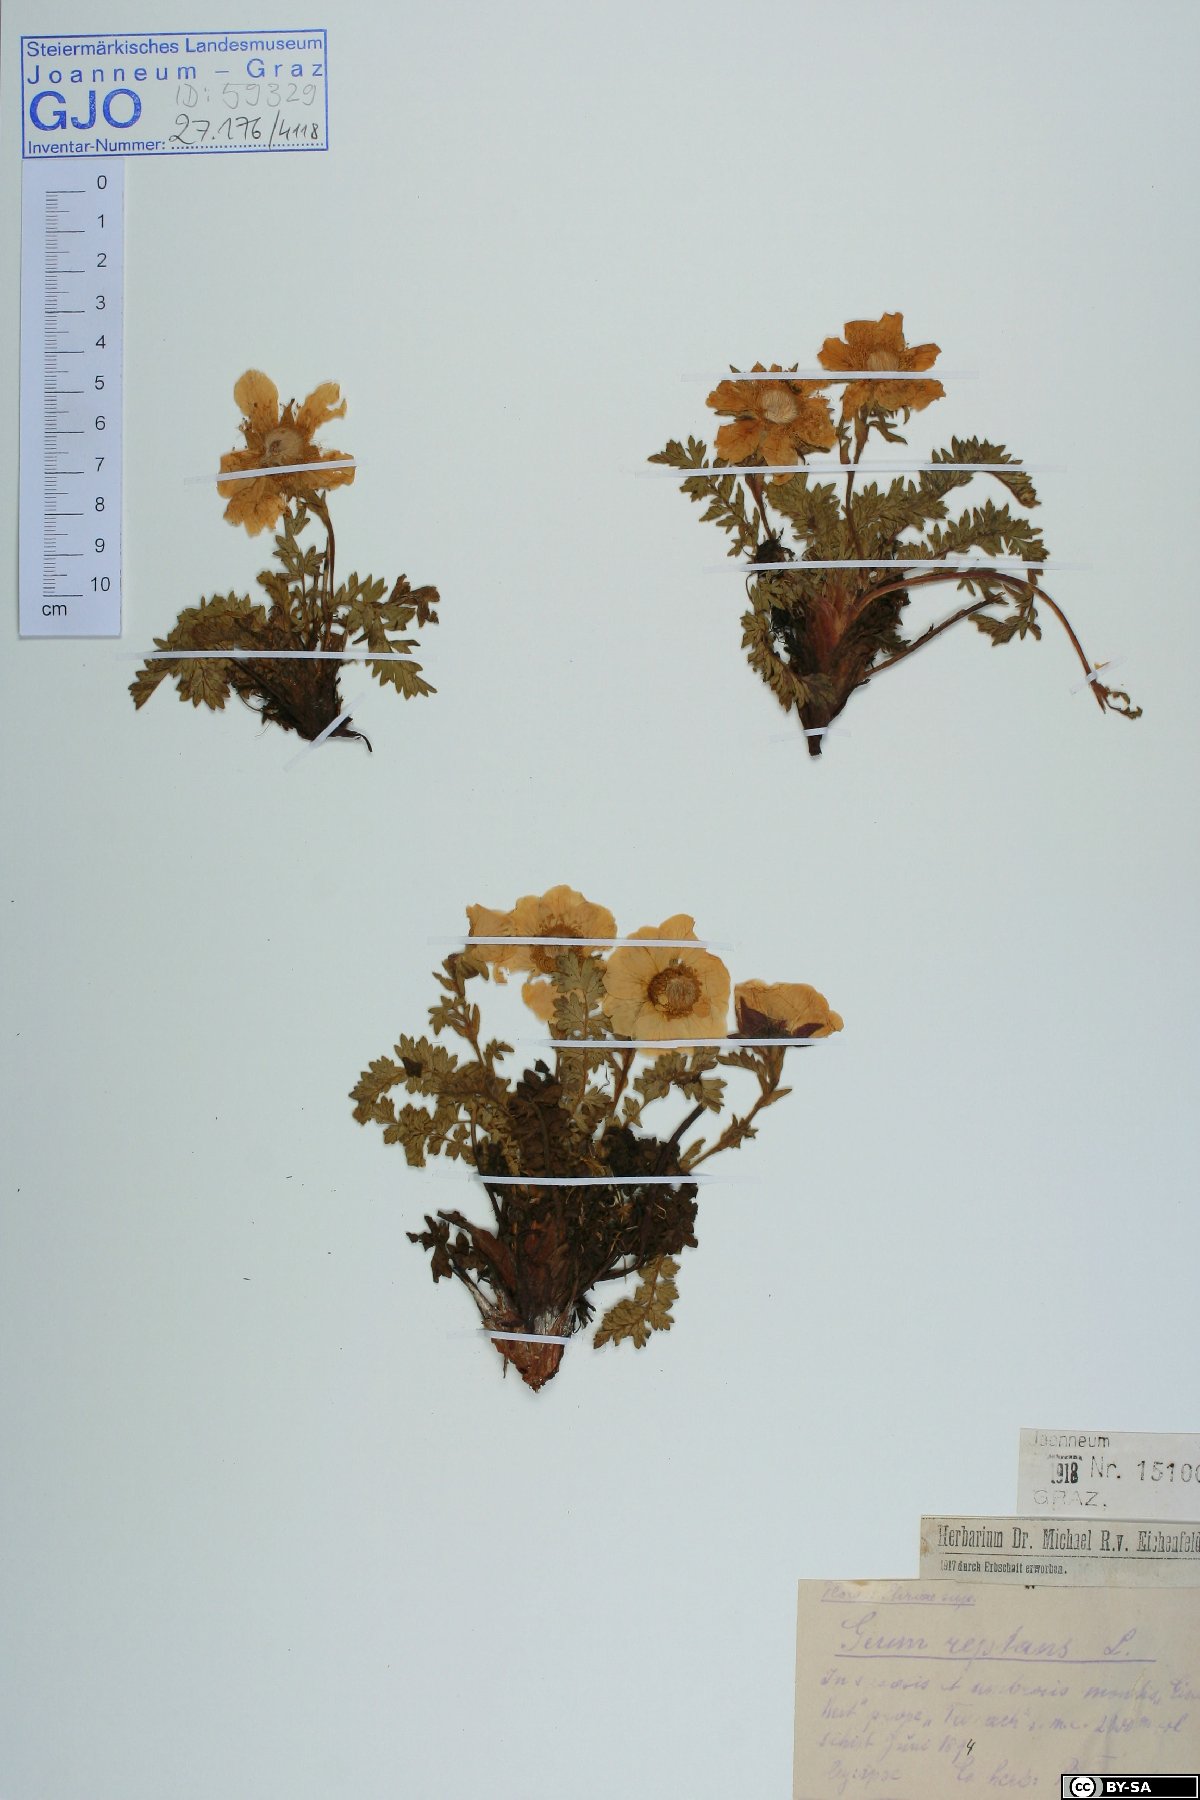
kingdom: Plantae
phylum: Tracheophyta
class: Magnoliopsida
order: Rosales
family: Rosaceae
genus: Geum
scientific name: Geum reptans
